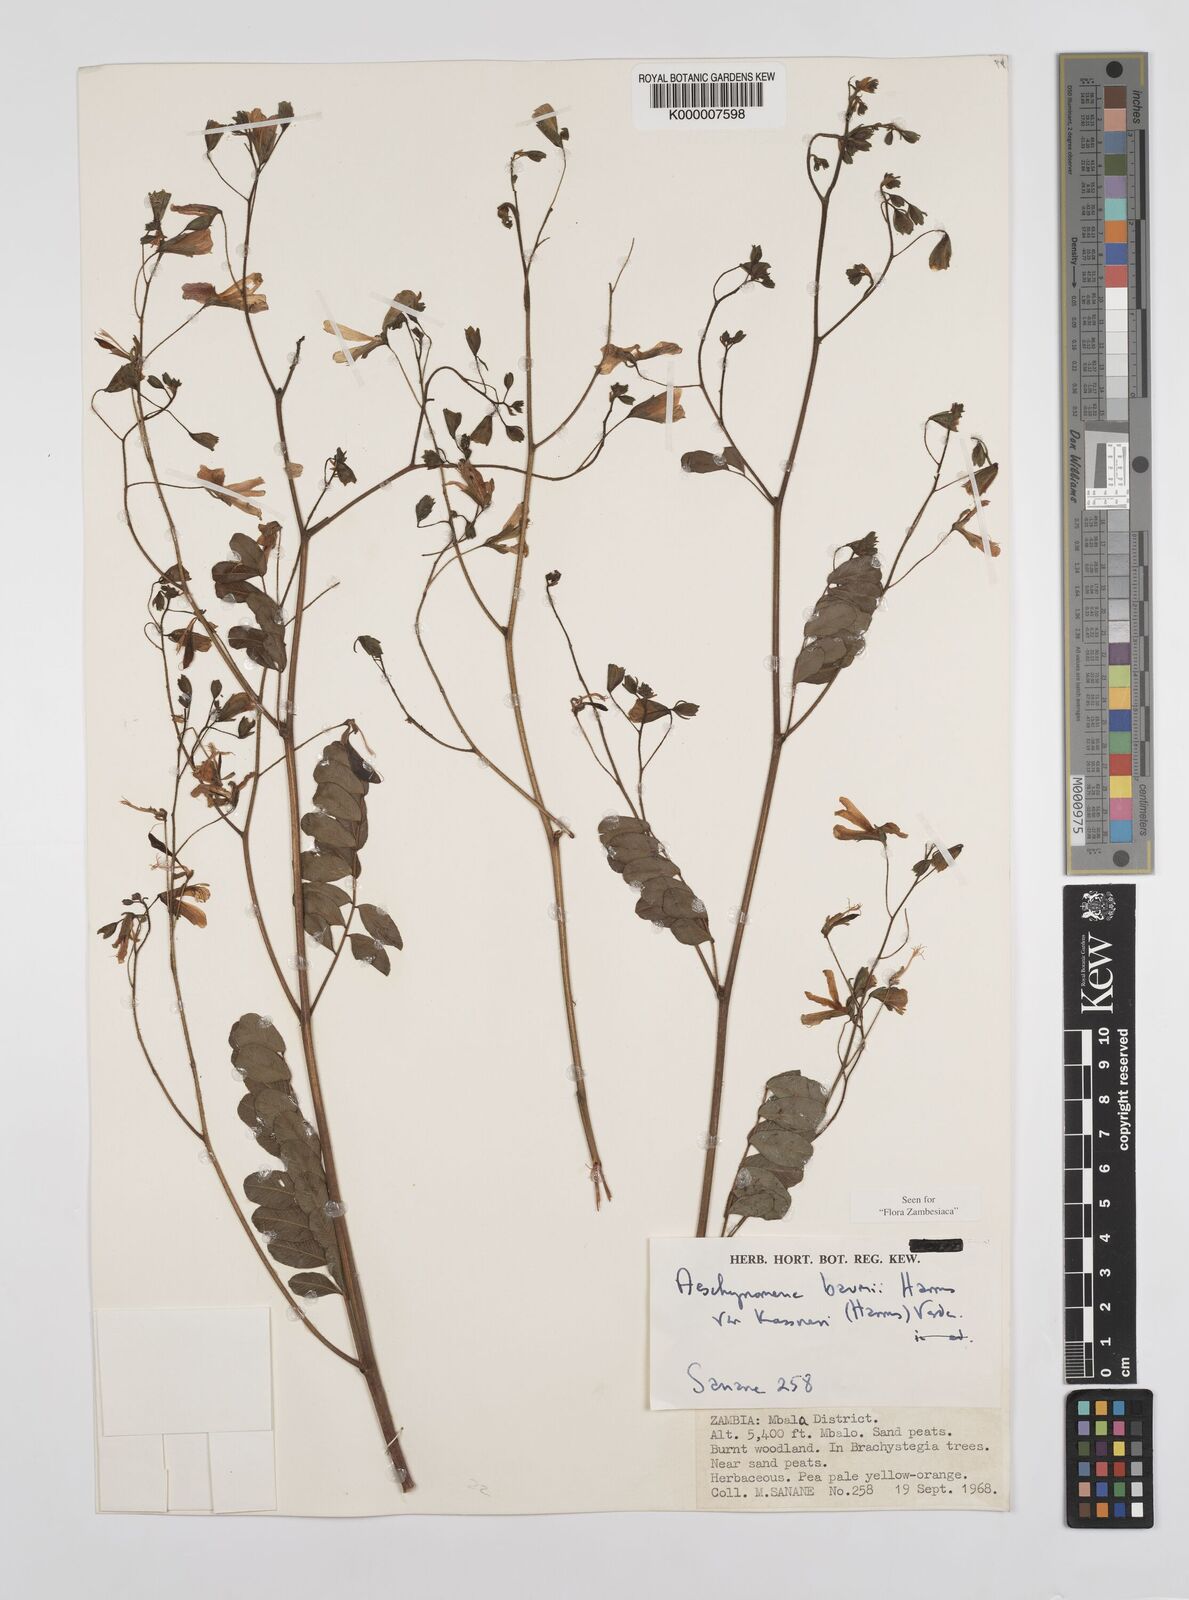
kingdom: Plantae
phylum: Tracheophyta
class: Magnoliopsida
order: Fabales
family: Fabaceae
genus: Aeschynomene
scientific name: Aeschynomene baumii
